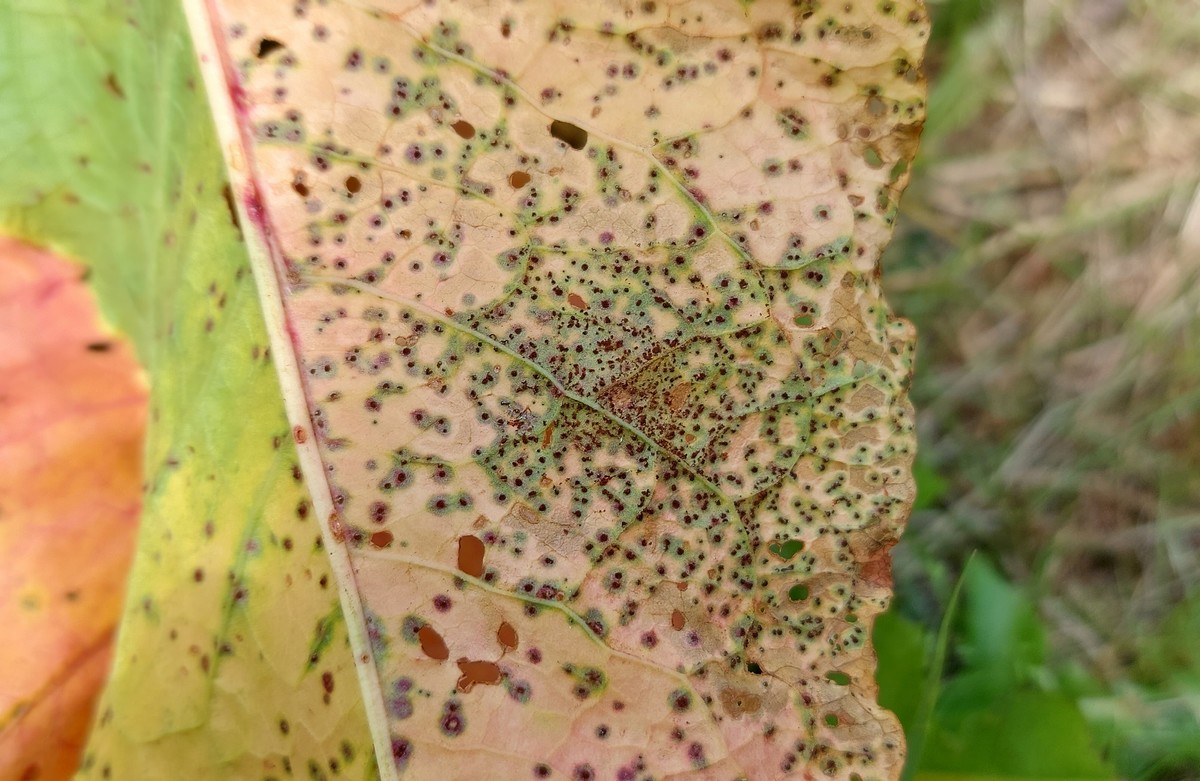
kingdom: Fungi
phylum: Basidiomycota
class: Pucciniomycetes
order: Pucciniales
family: Pucciniaceae
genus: Uromyces
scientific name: Uromyces rumicis
